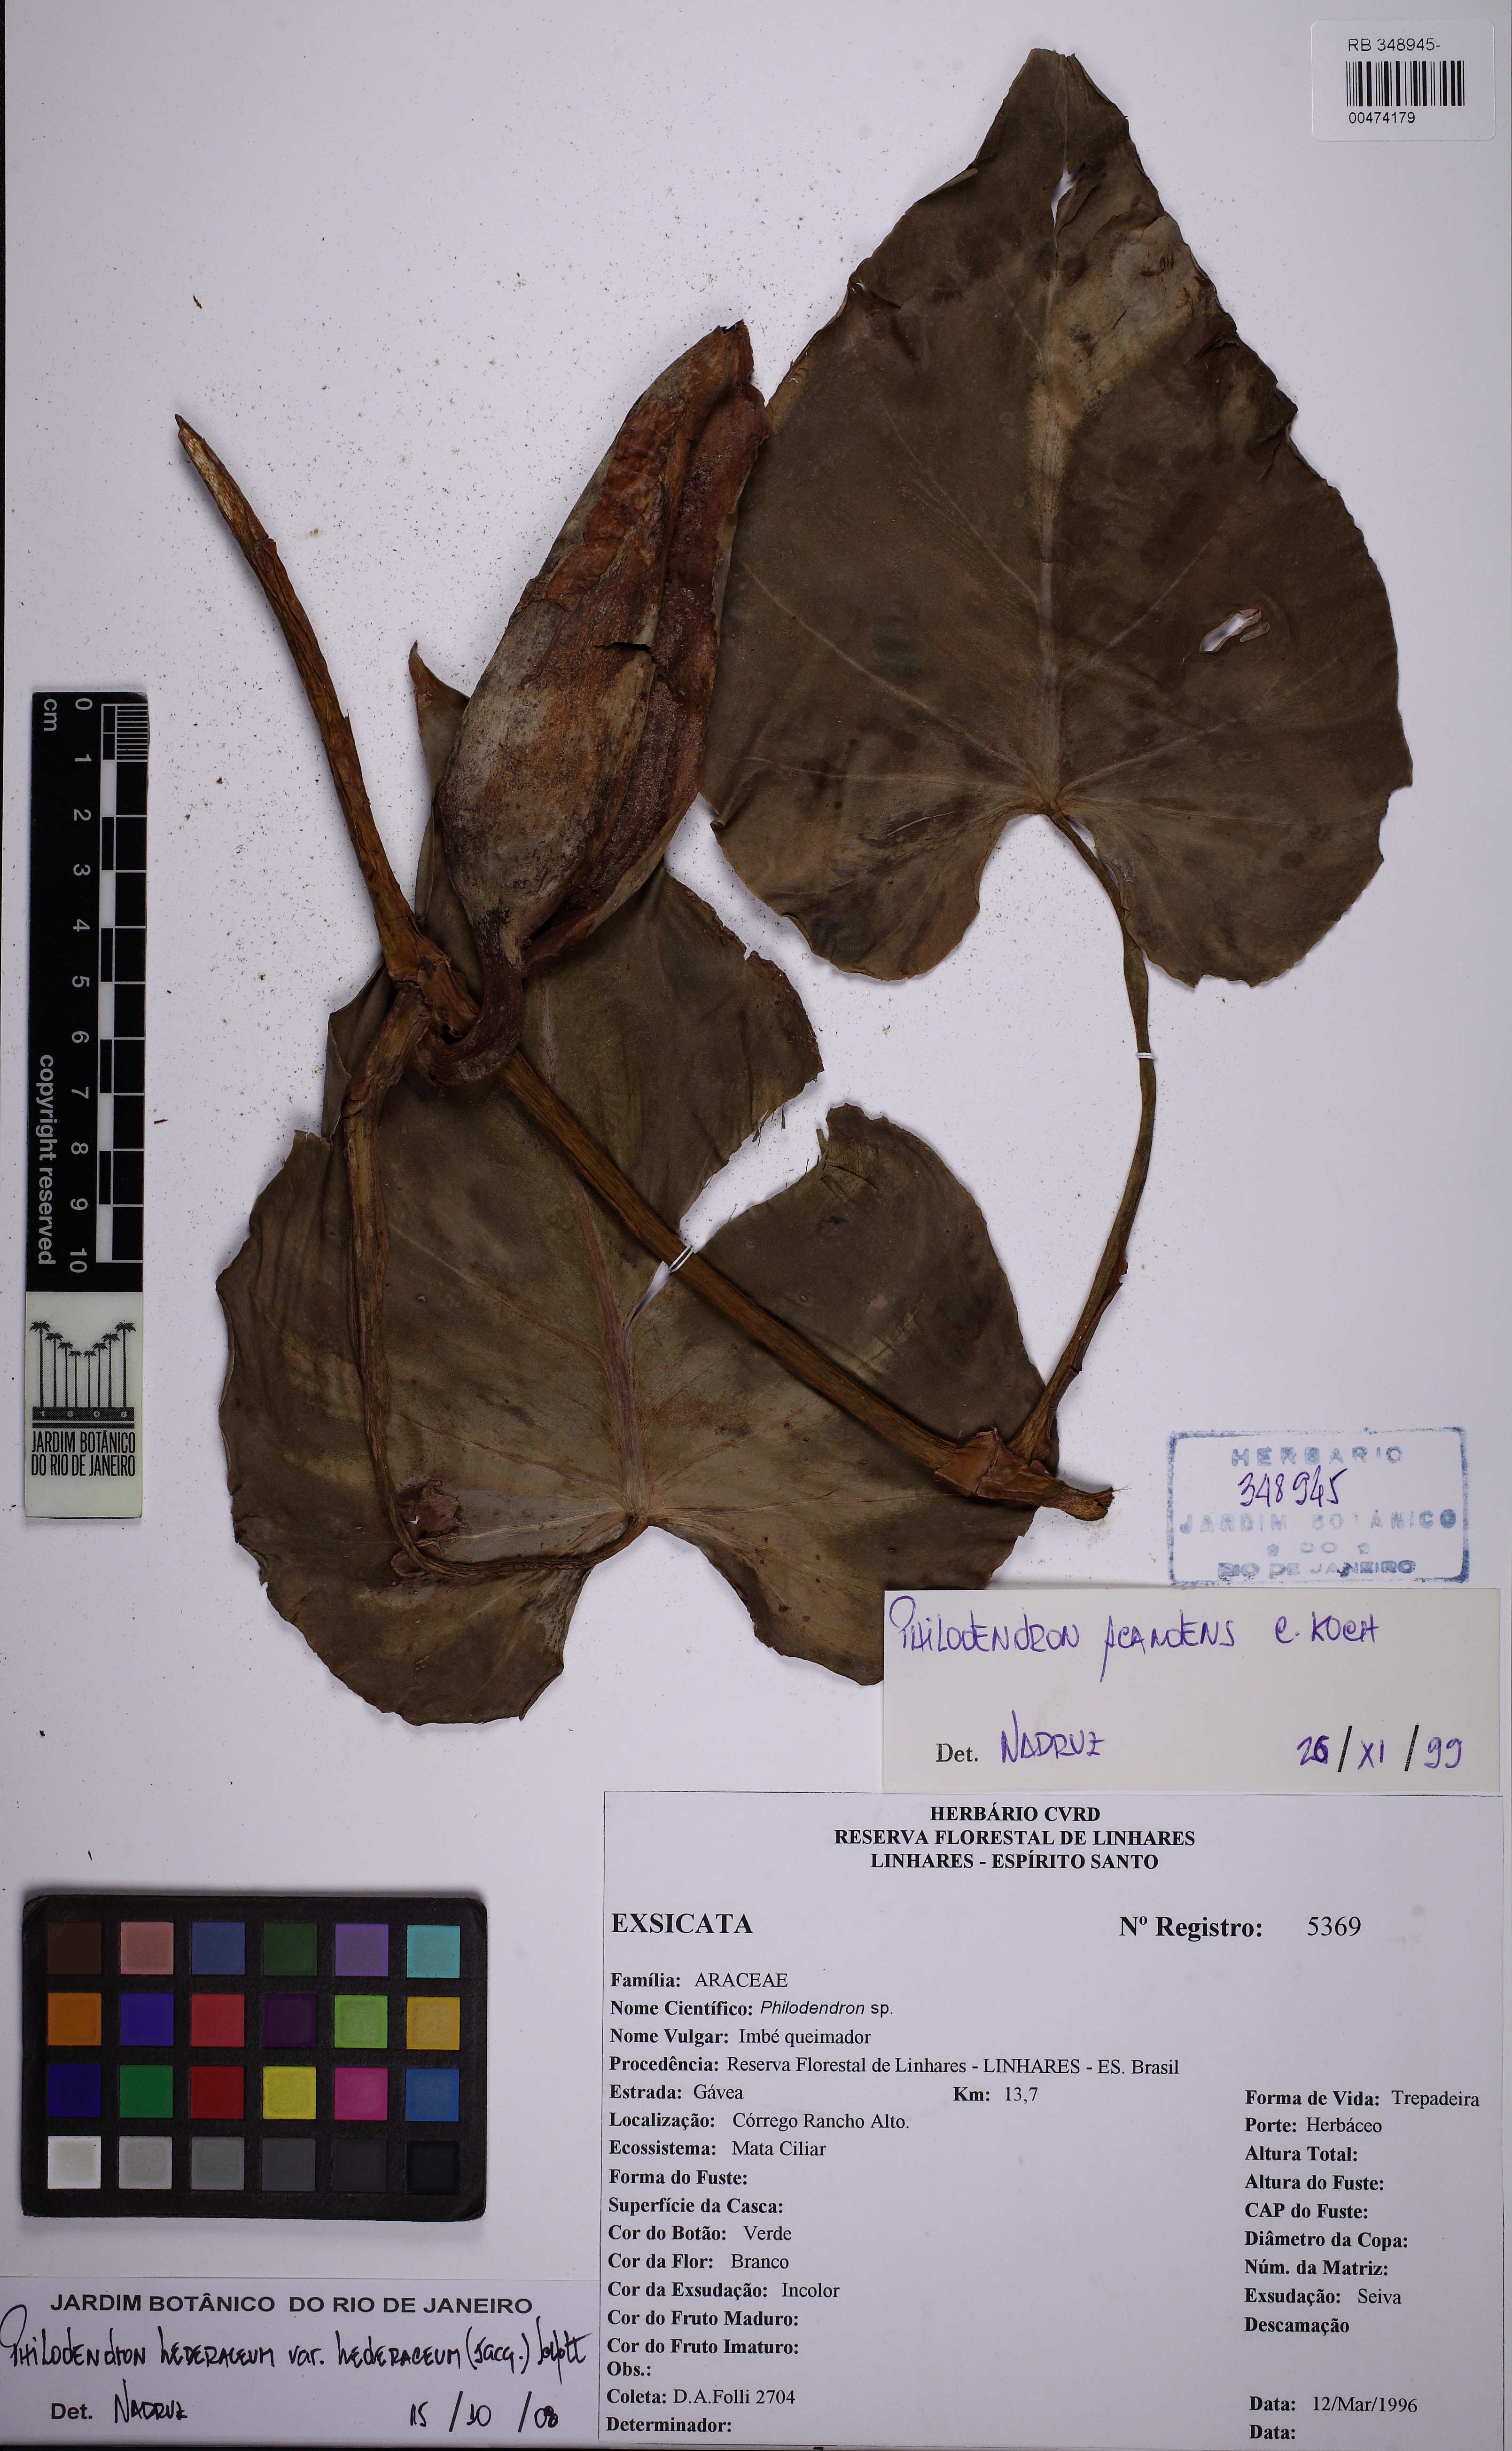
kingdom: Plantae
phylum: Tracheophyta
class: Liliopsida
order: Alismatales
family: Araceae
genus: Philodendron
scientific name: Philodendron hederaceum
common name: Vilevine
